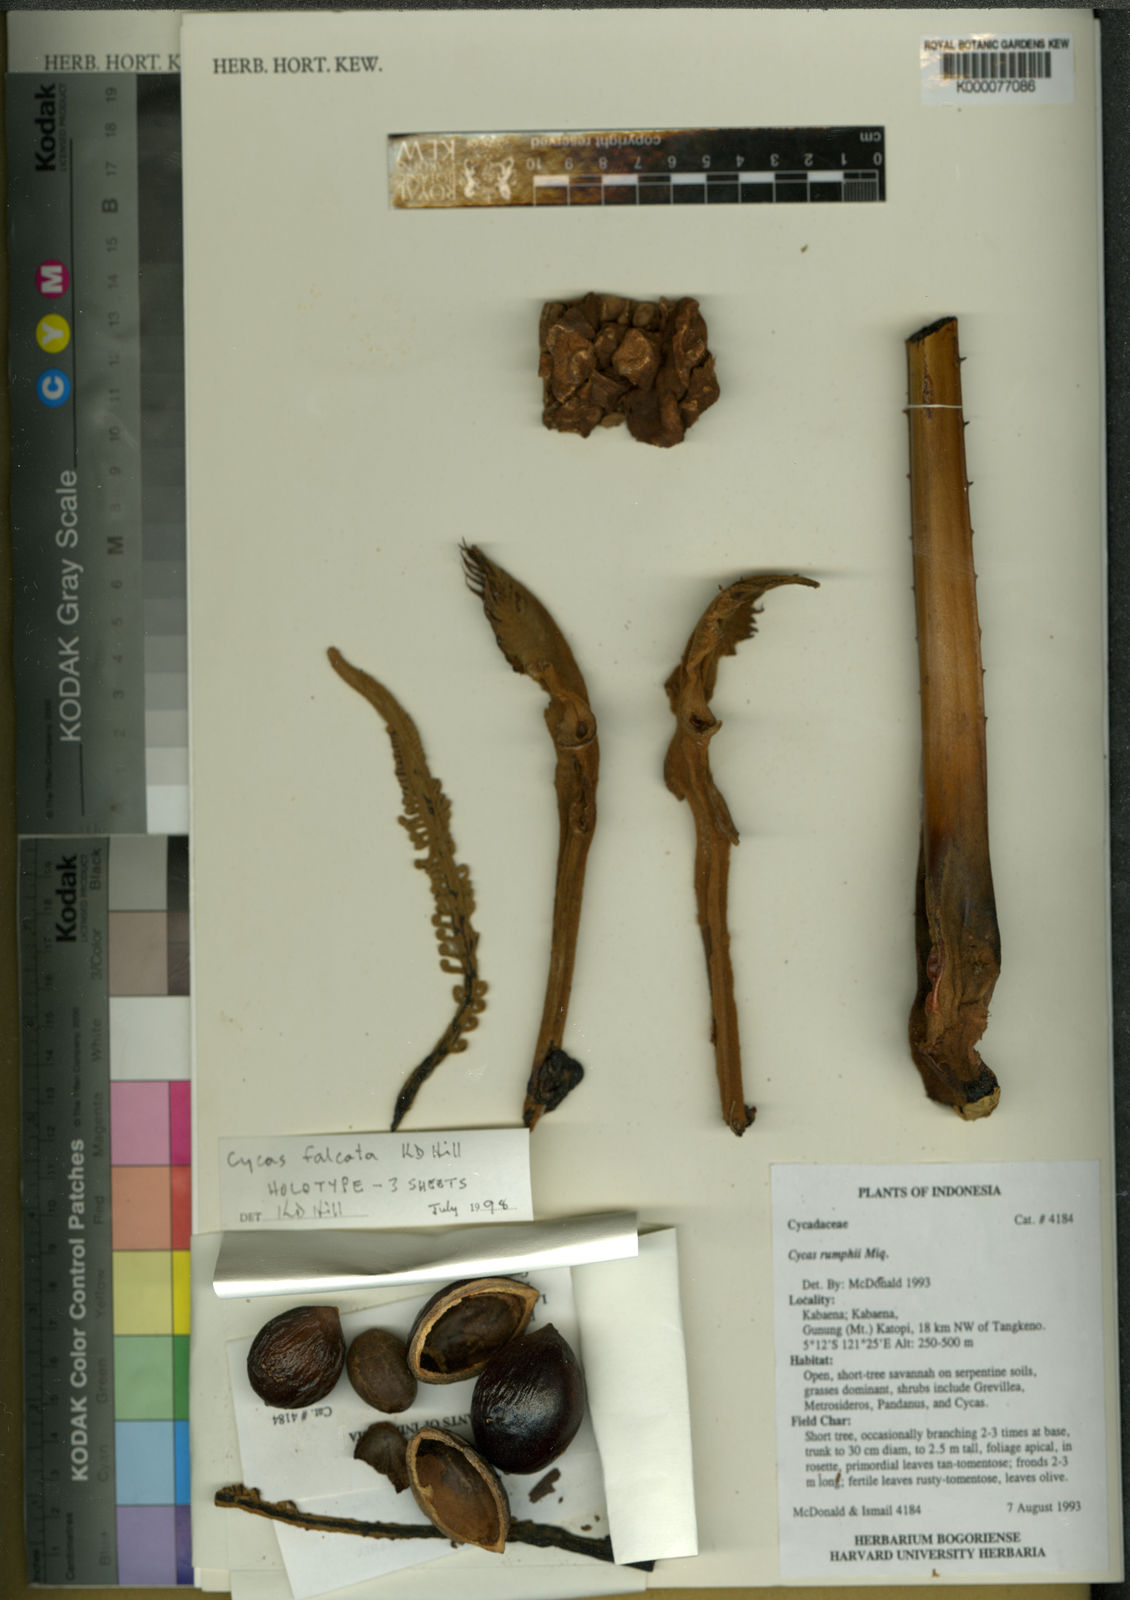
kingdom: Plantae
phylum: Tracheophyta
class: Cycadopsida
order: Cycadales
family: Cycadaceae
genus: Cycas
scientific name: Cycas falcata
